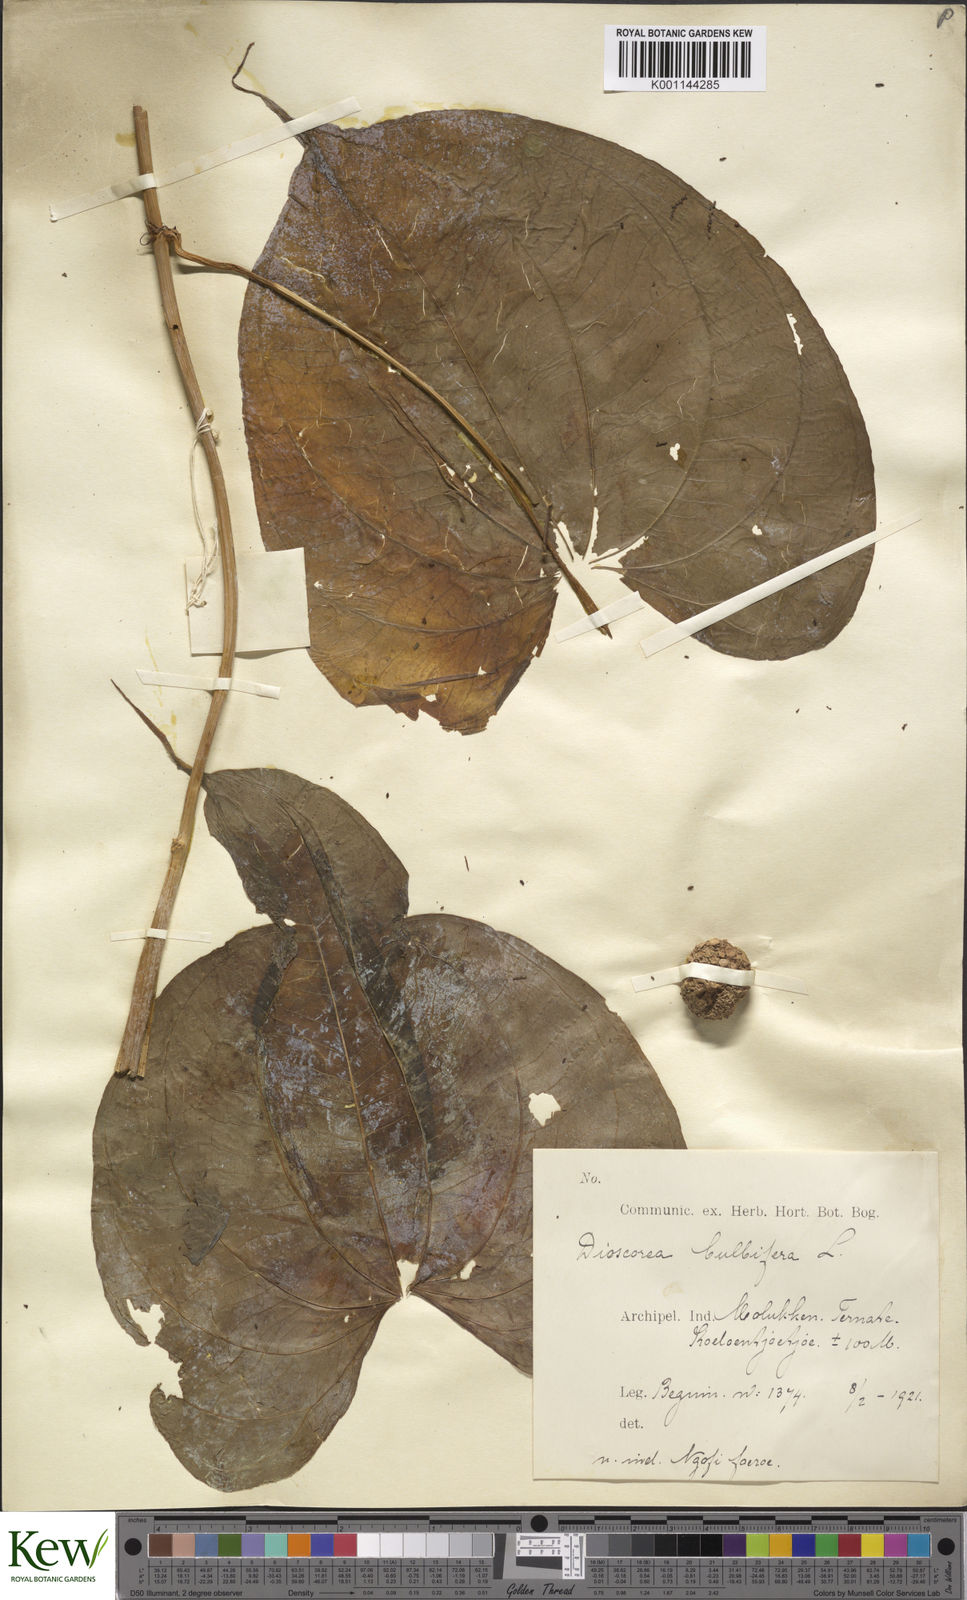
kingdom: Plantae
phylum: Tracheophyta
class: Liliopsida
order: Dioscoreales
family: Dioscoreaceae
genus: Dioscorea
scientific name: Dioscorea bulbifera
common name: Air yam
